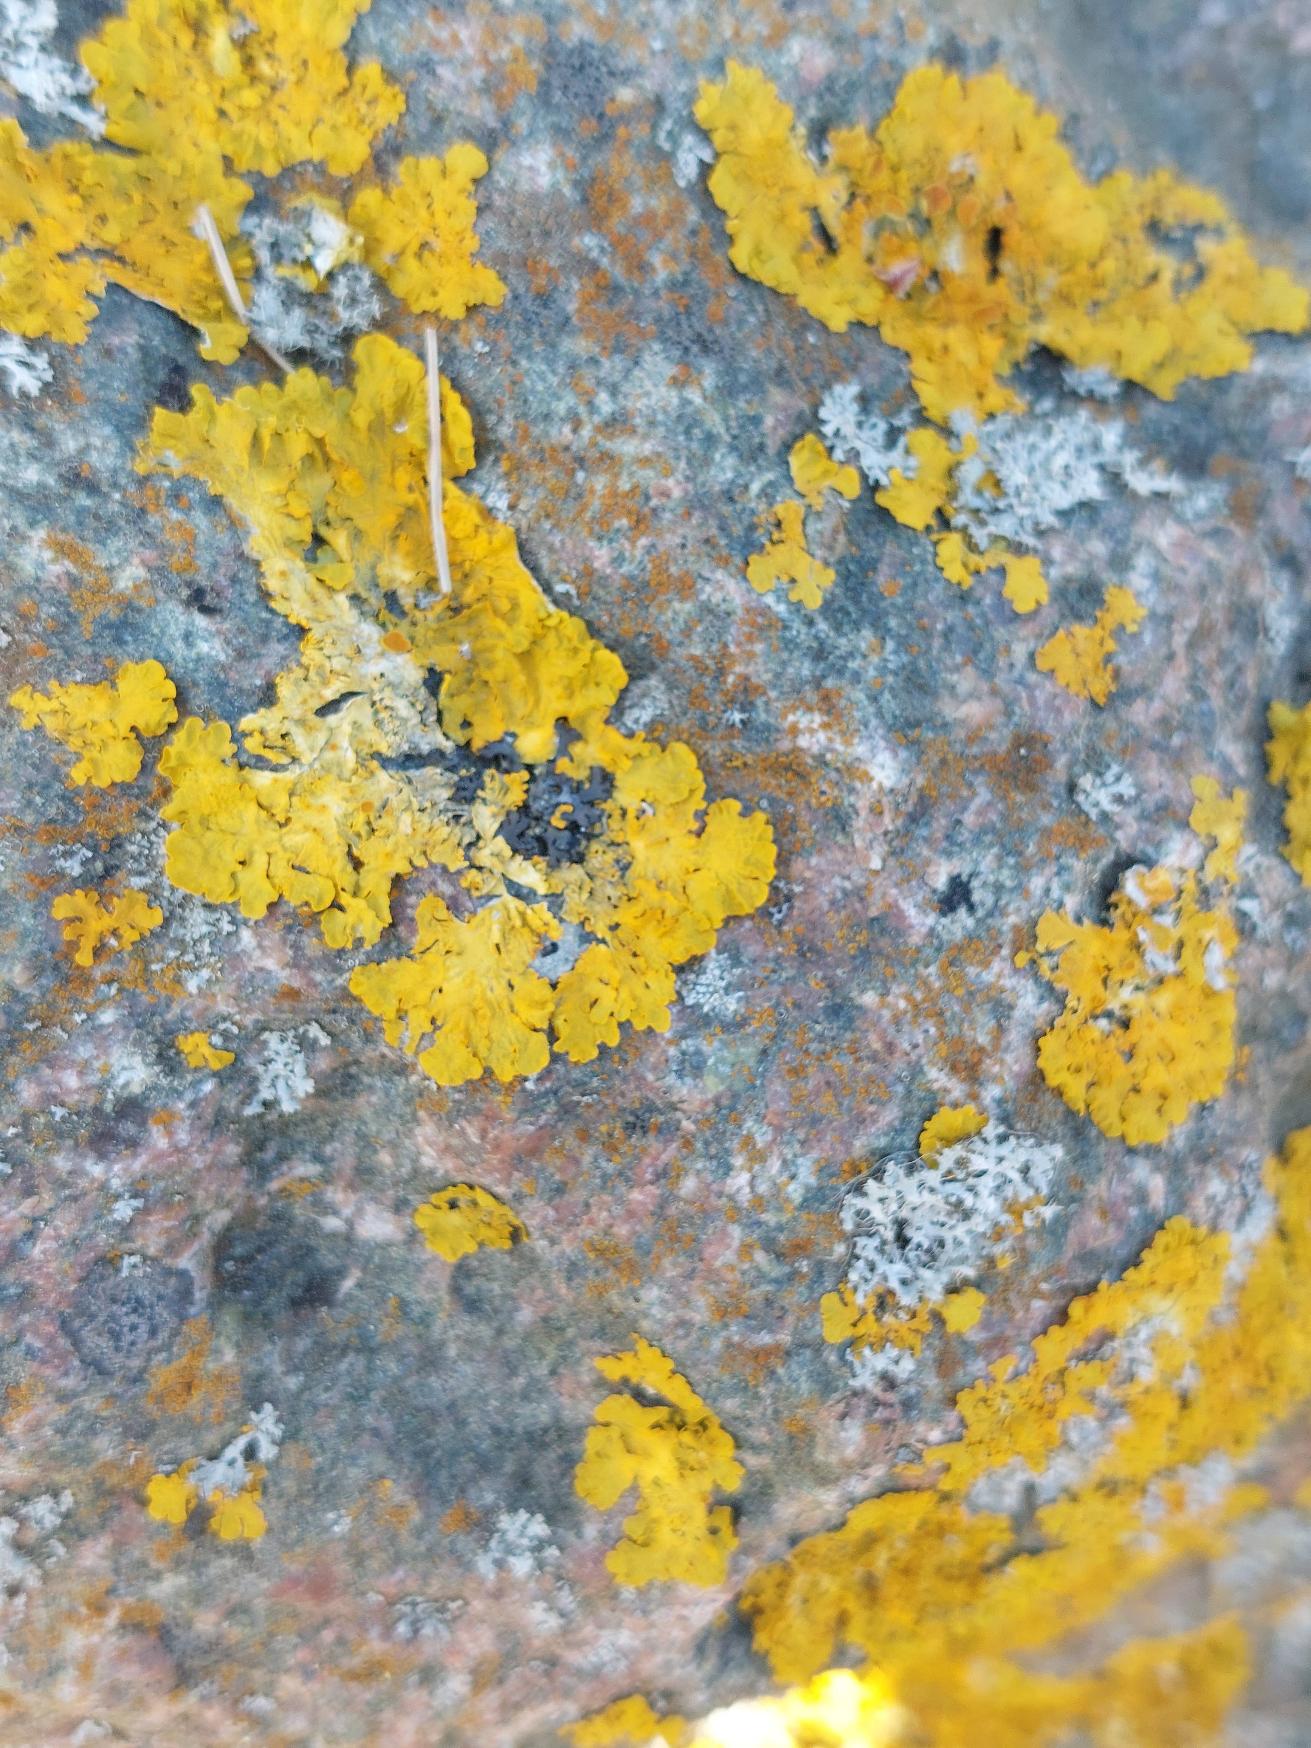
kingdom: Fungi
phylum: Ascomycota
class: Lecanoromycetes
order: Teloschistales
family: Teloschistaceae
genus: Xanthoria
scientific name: Xanthoria parietina
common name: Almindelig væggelav
